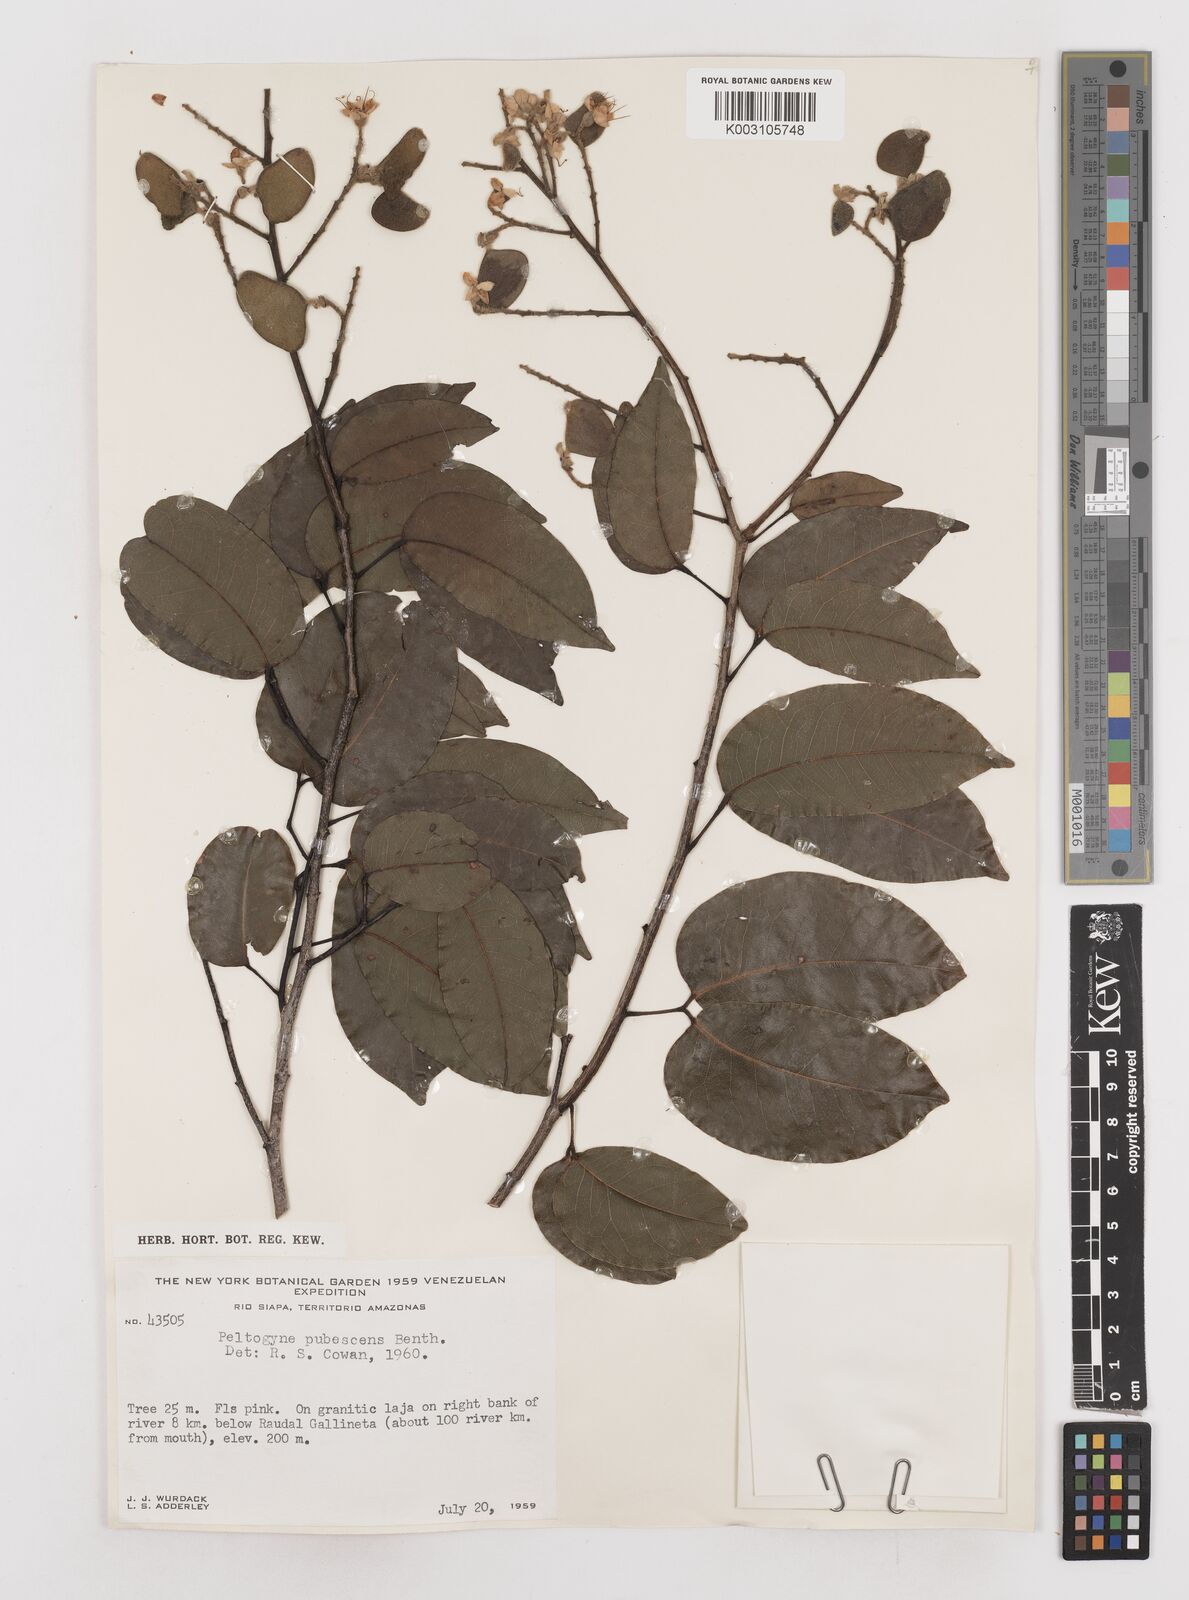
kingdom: Plantae
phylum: Tracheophyta
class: Magnoliopsida
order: Fabales
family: Fabaceae
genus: Peltogyne
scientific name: Peltogyne paniculata
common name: Purpleheart
